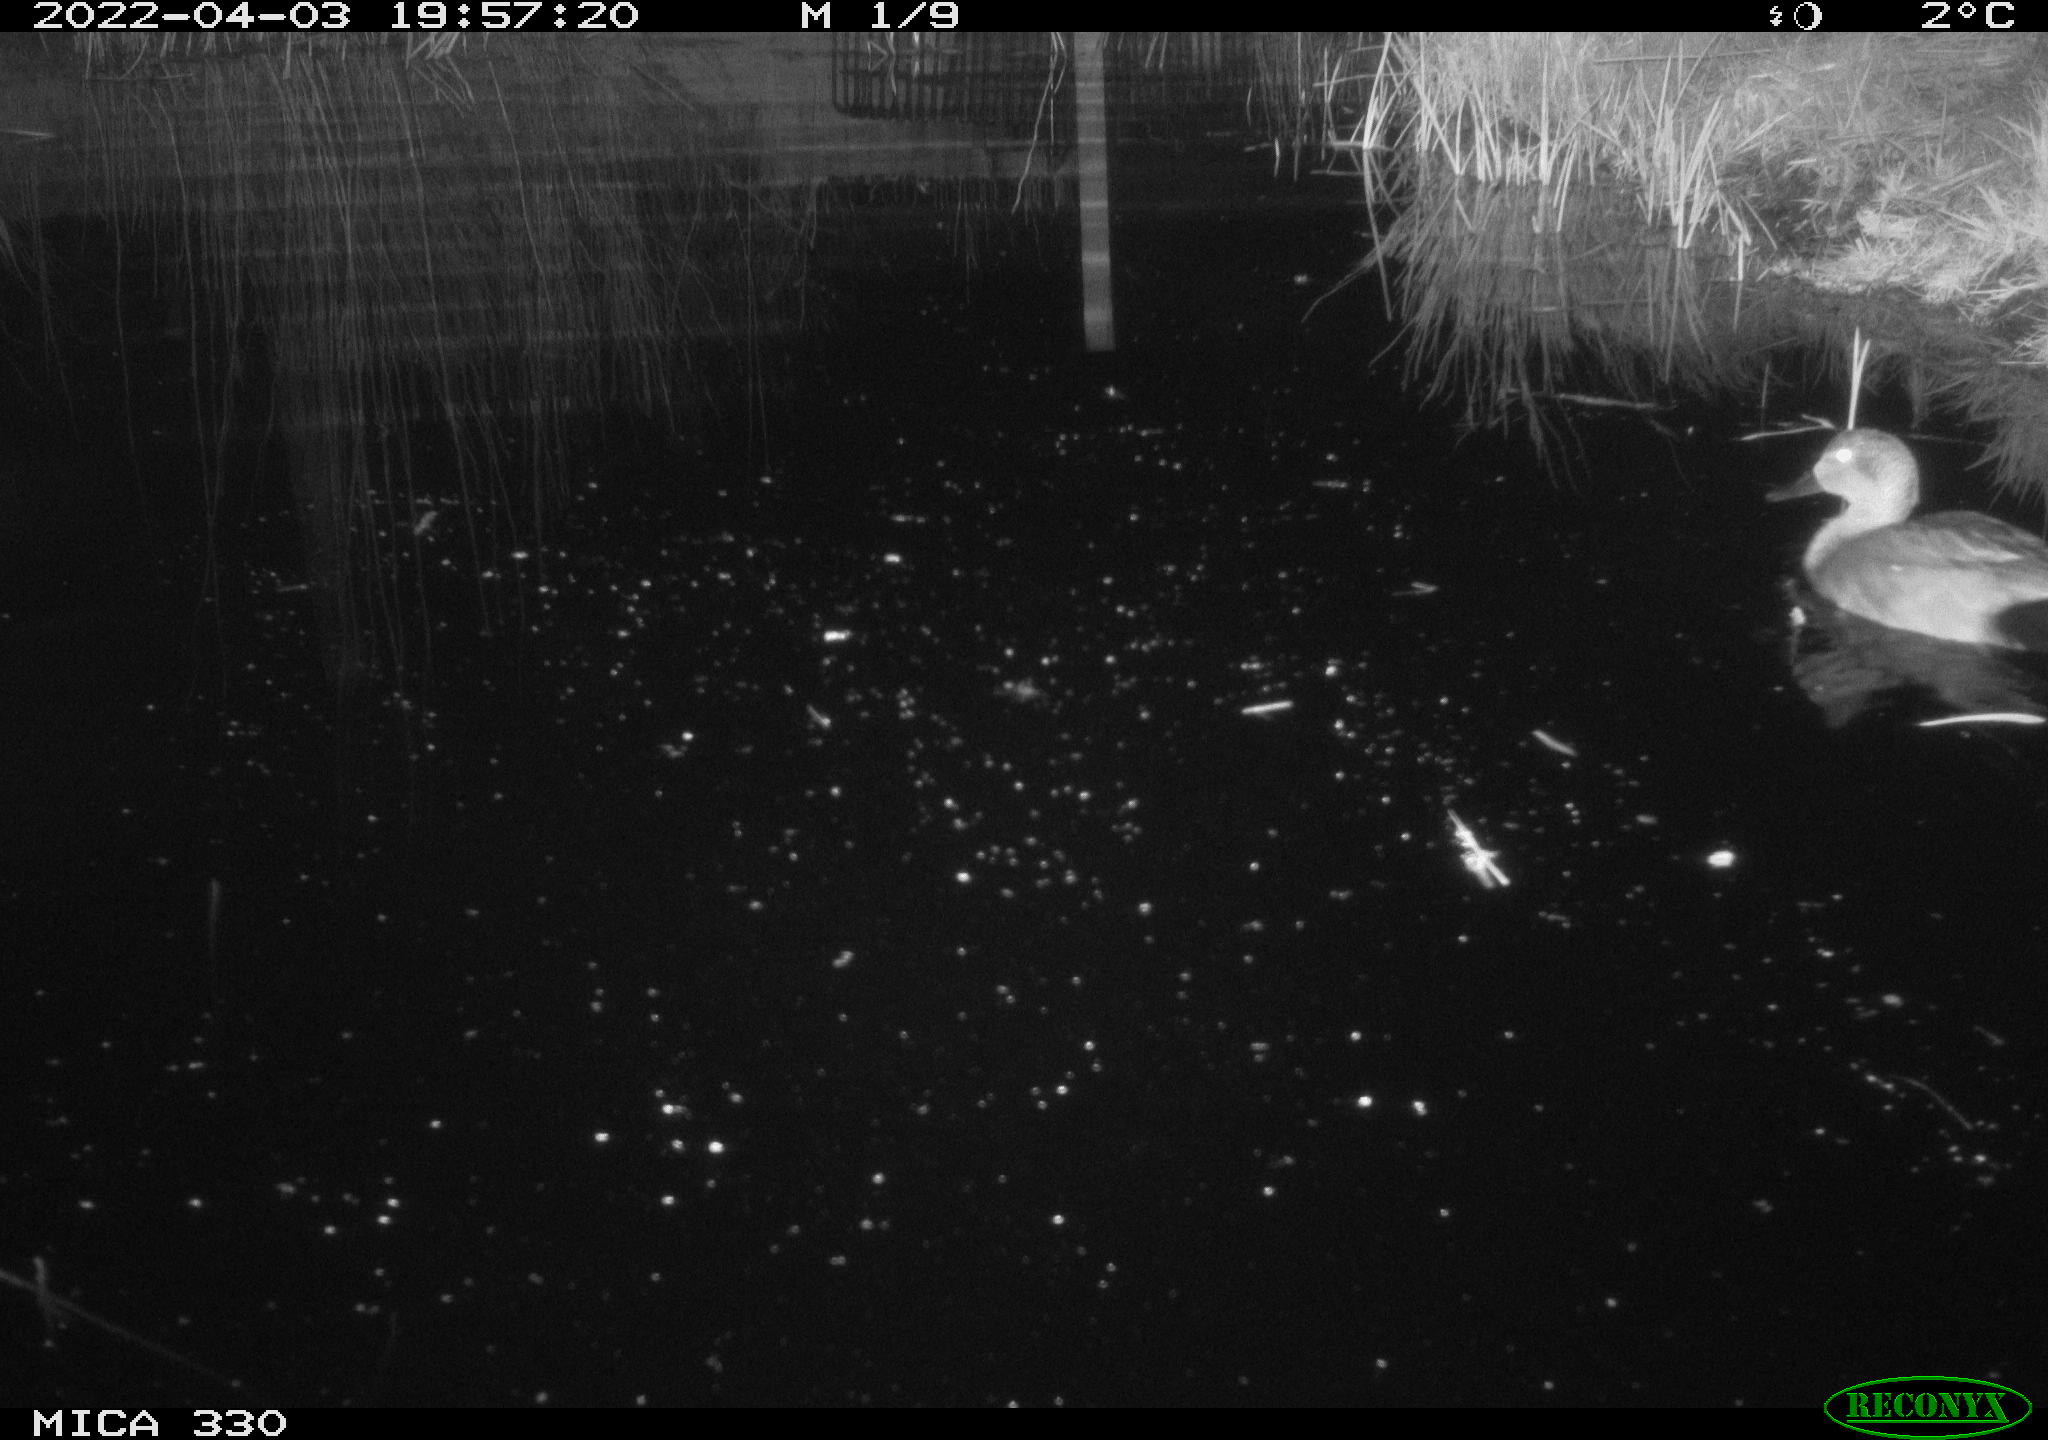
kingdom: Animalia
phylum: Chordata
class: Aves
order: Anseriformes
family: Anatidae
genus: Mareca
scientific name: Mareca strepera
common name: Gadwall
